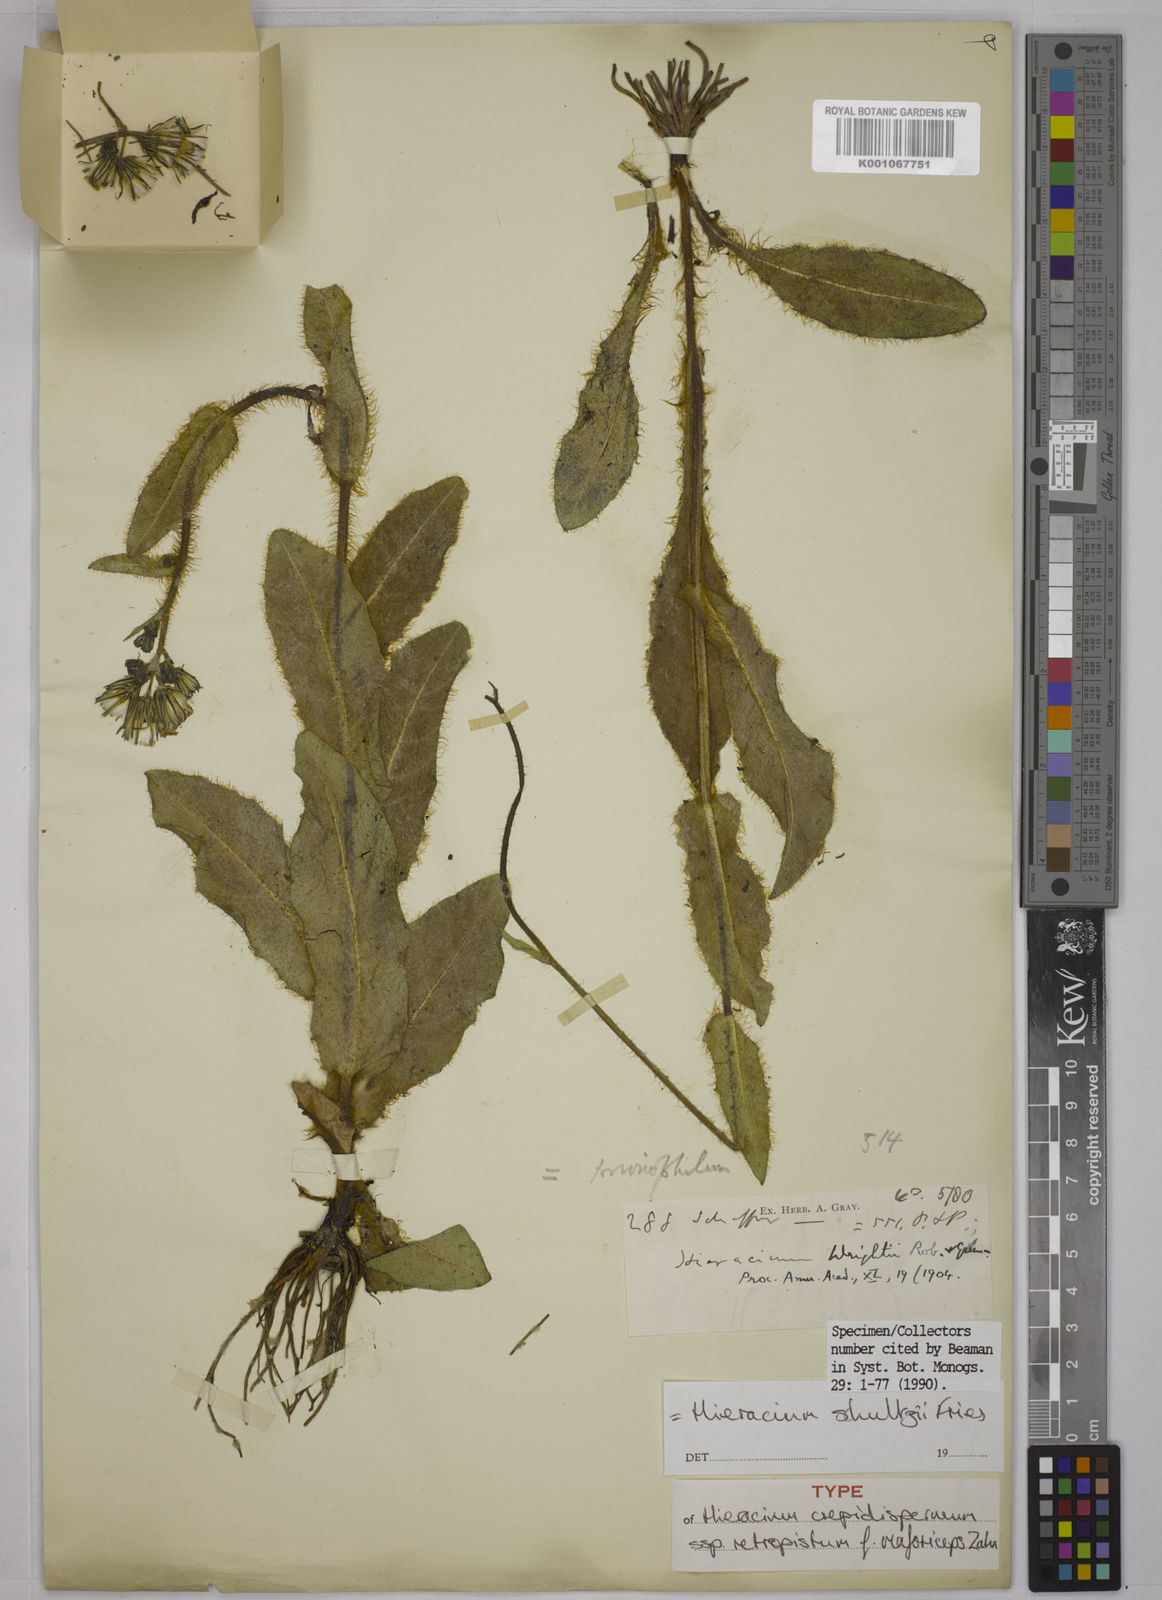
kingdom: Plantae
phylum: Tracheophyta
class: Magnoliopsida
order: Asterales
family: Asteraceae
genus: Hieracium
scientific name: Hieracium friesii
